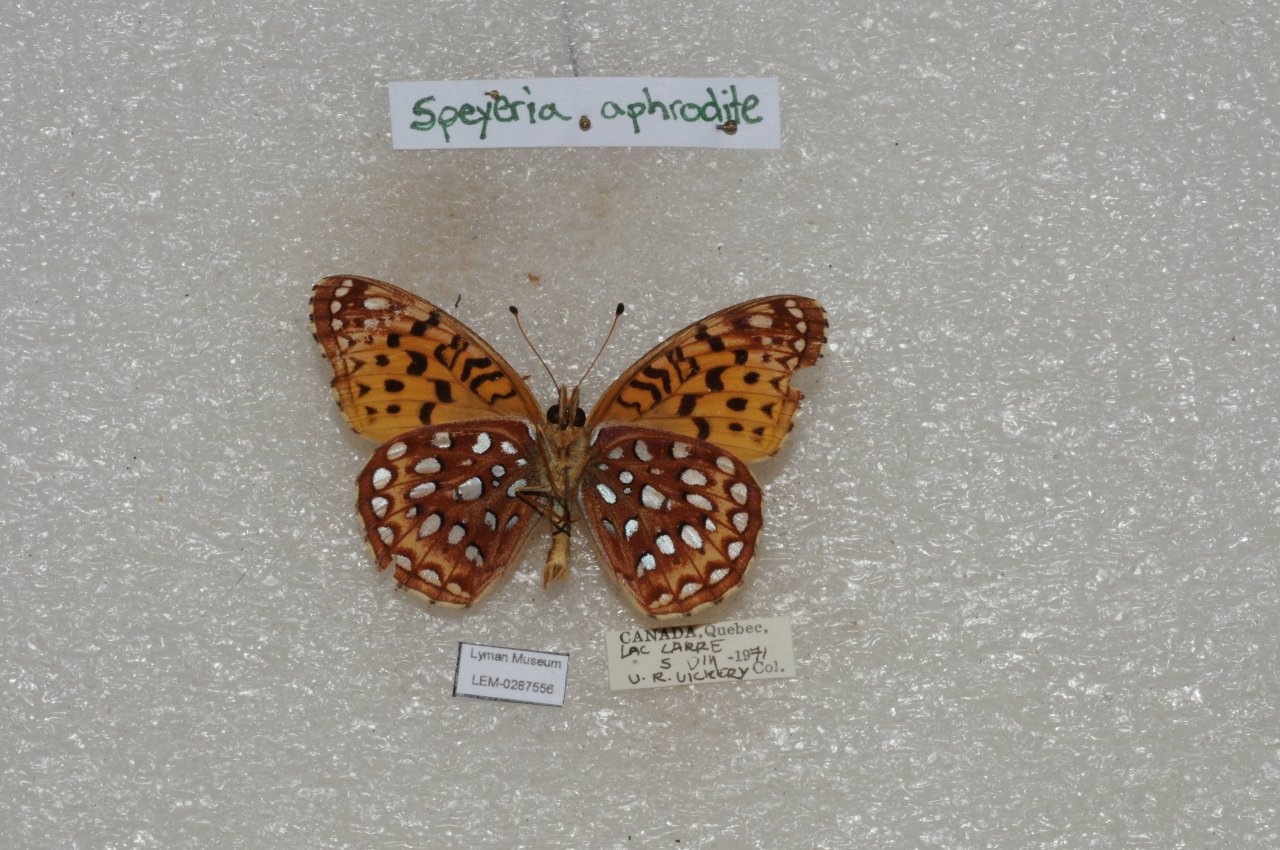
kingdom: Animalia
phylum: Arthropoda
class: Insecta
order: Lepidoptera
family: Nymphalidae
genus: Speyeria
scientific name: Speyeria aphrodite
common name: Aphrodite Fritillary
